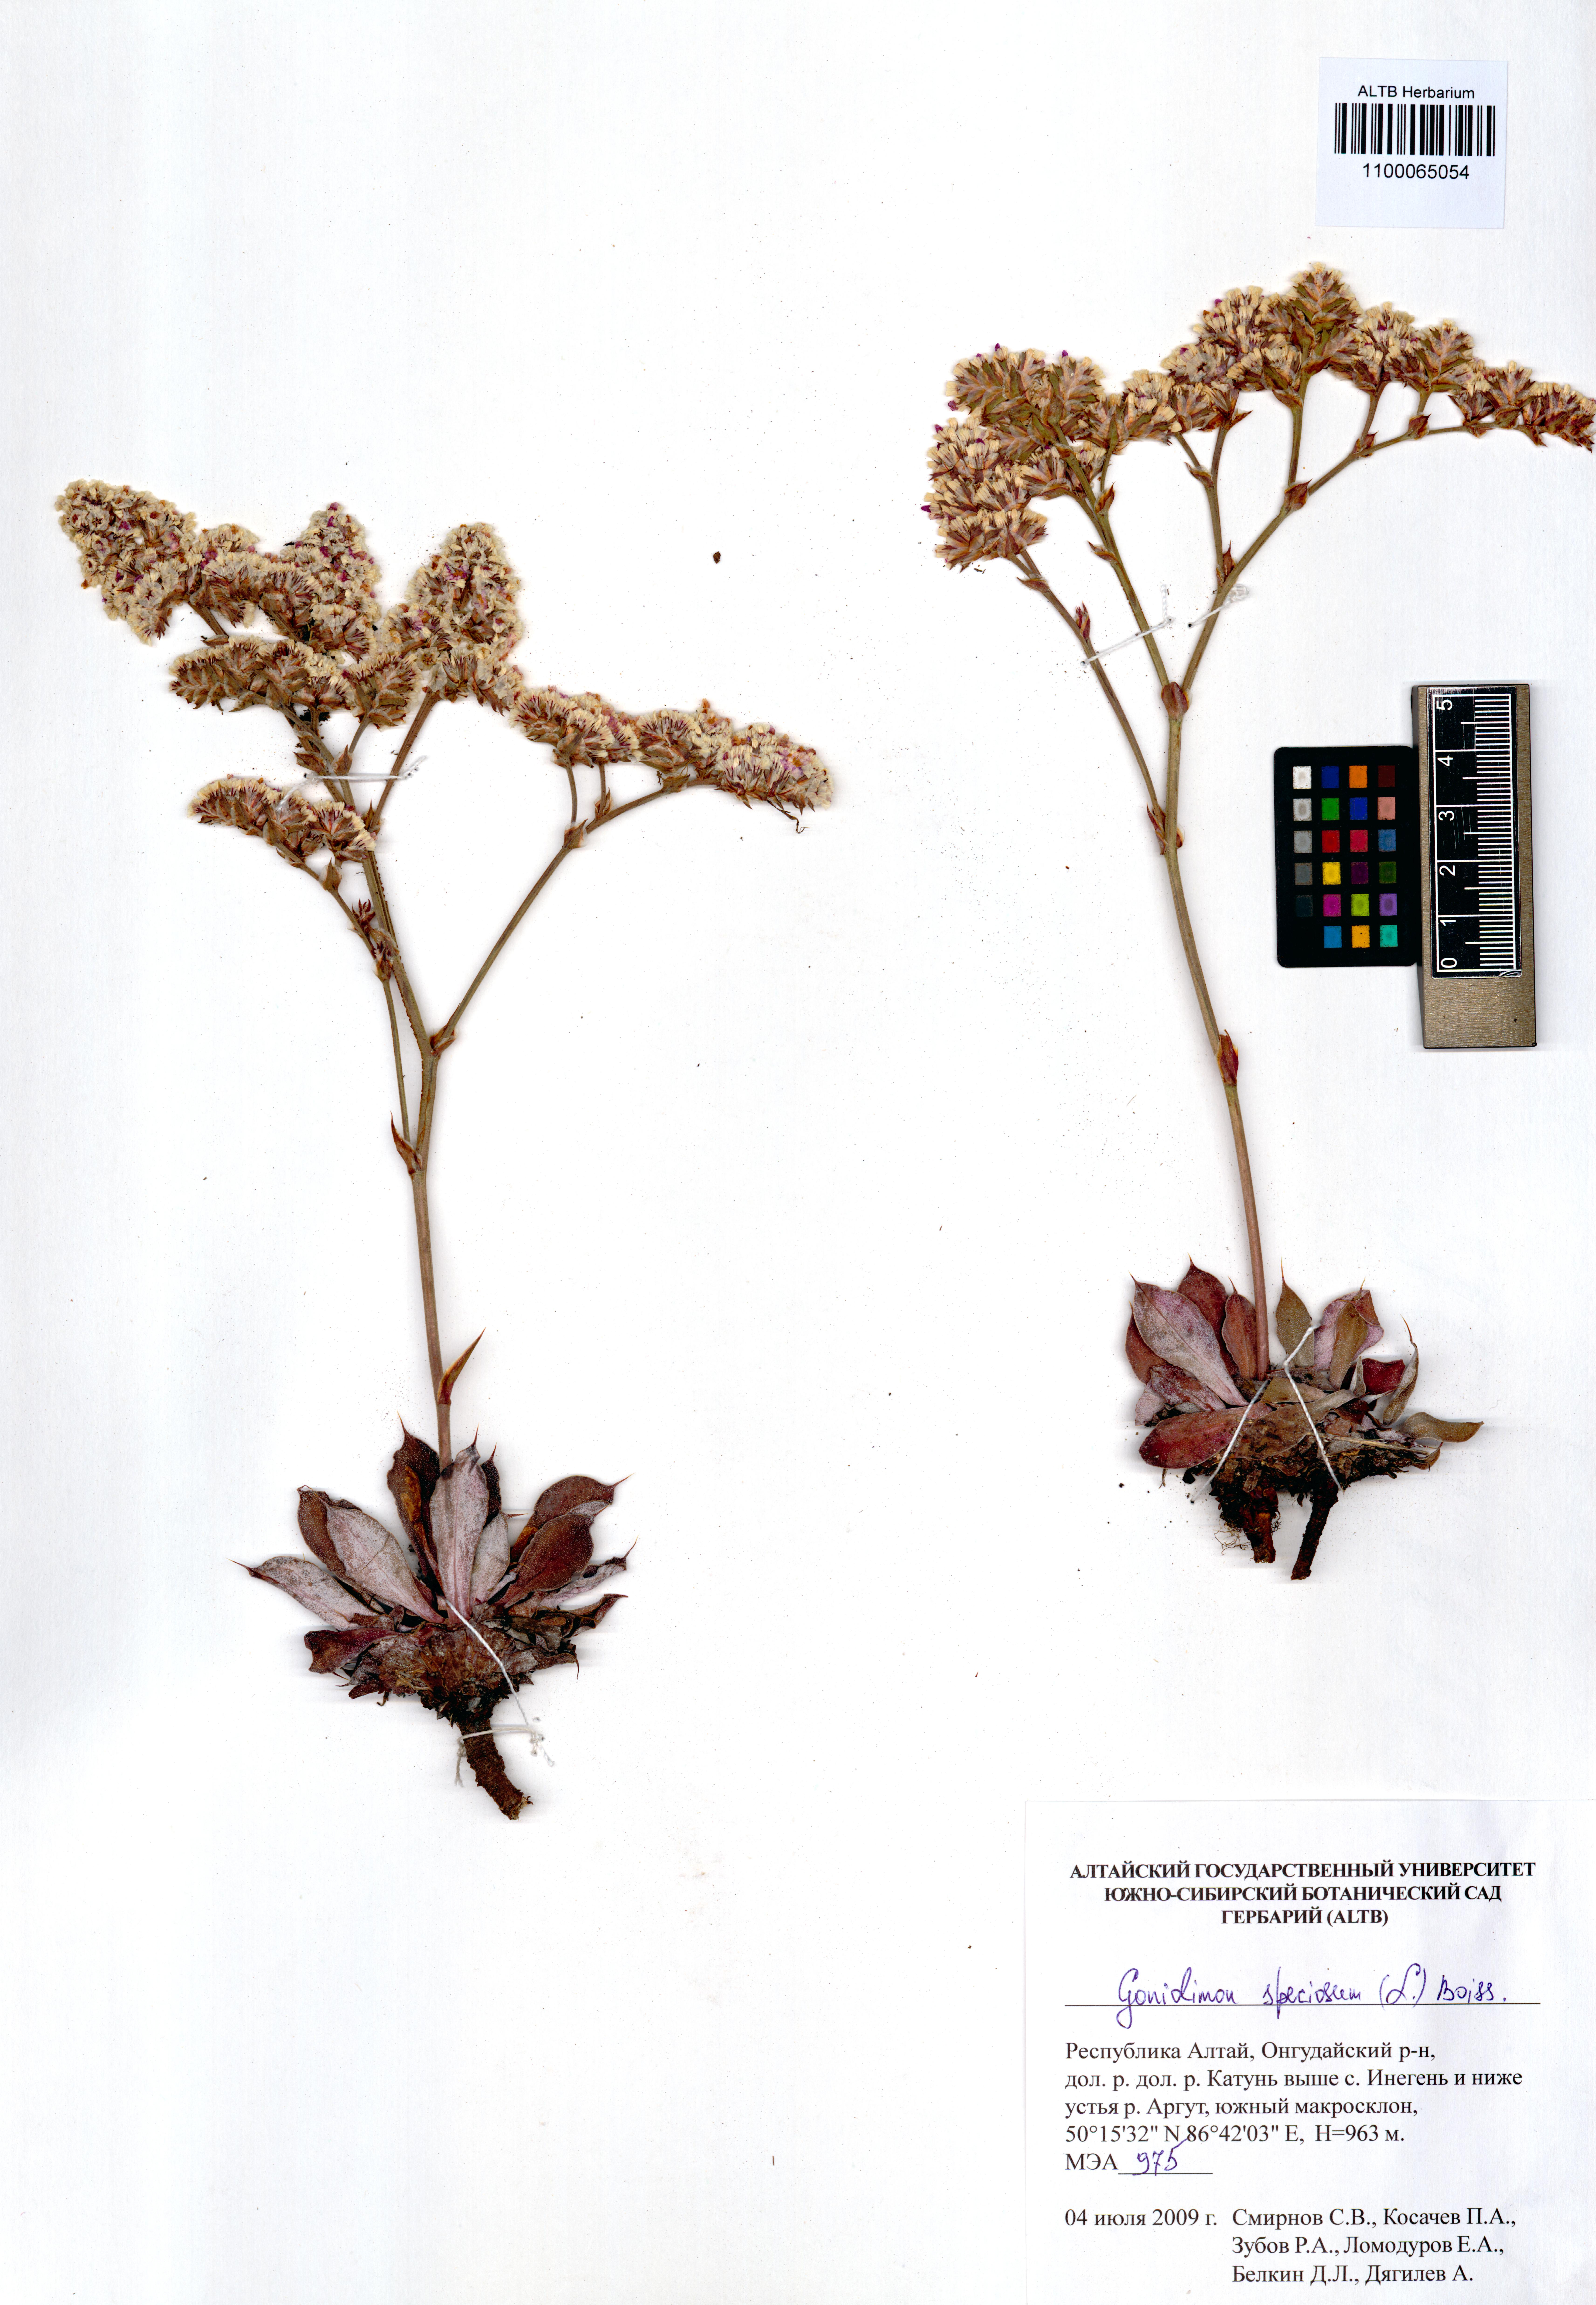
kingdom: Plantae
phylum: Tracheophyta
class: Magnoliopsida
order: Caryophyllales
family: Plumbaginaceae
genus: Goniolimon
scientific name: Goniolimon speciosum
